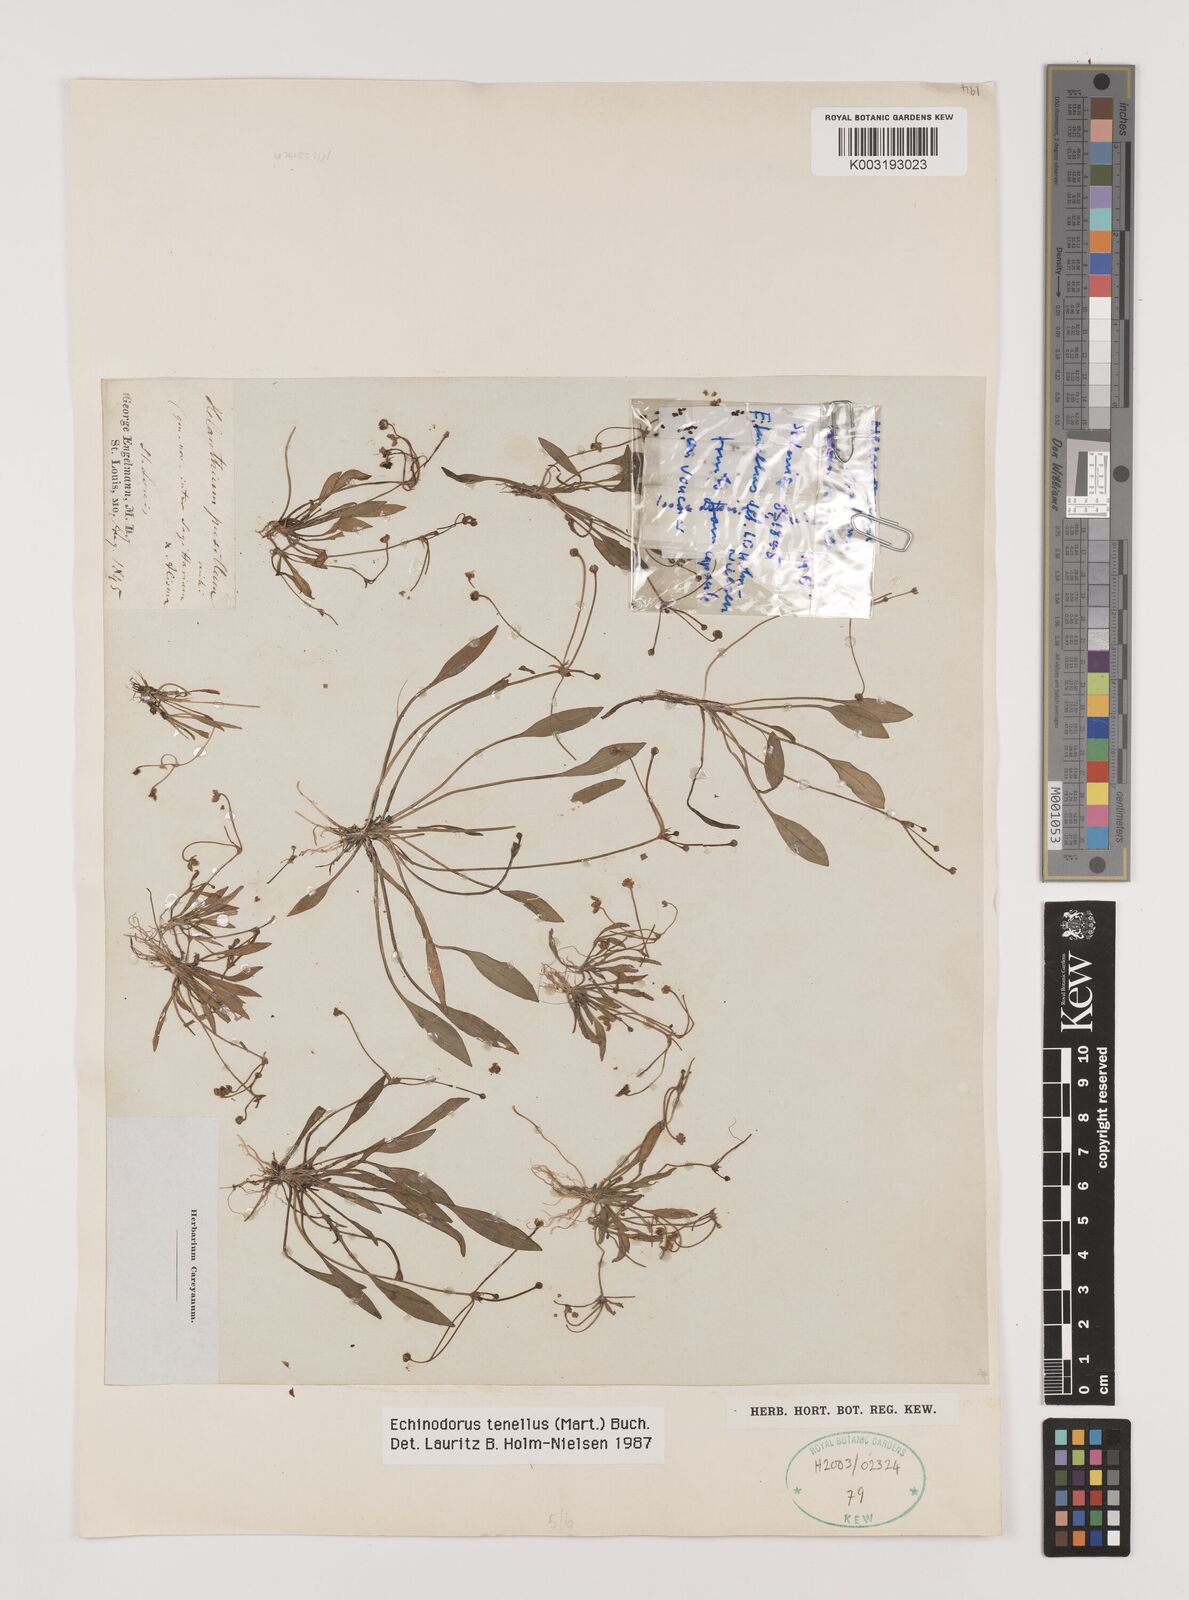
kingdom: Plantae
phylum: Tracheophyta
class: Liliopsida
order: Alismatales
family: Alismataceae
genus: Helanthium
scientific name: Helanthium tenellum
